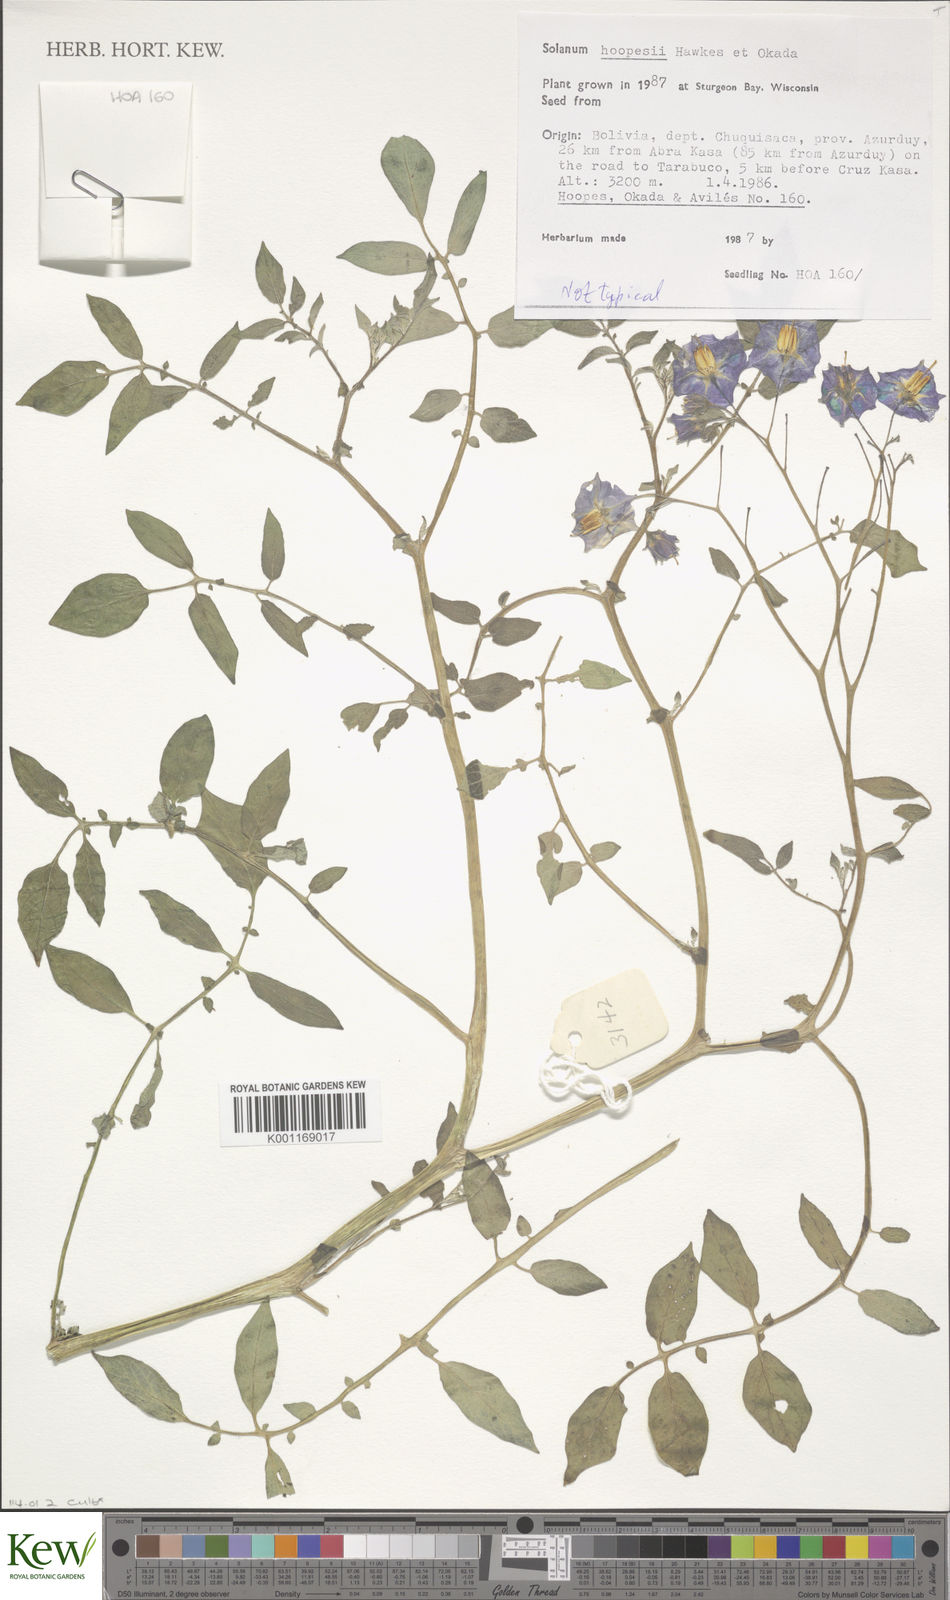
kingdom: Plantae
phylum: Tracheophyta
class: Magnoliopsida
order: Solanales
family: Solanaceae
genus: Solanum
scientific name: Solanum brevicaule
